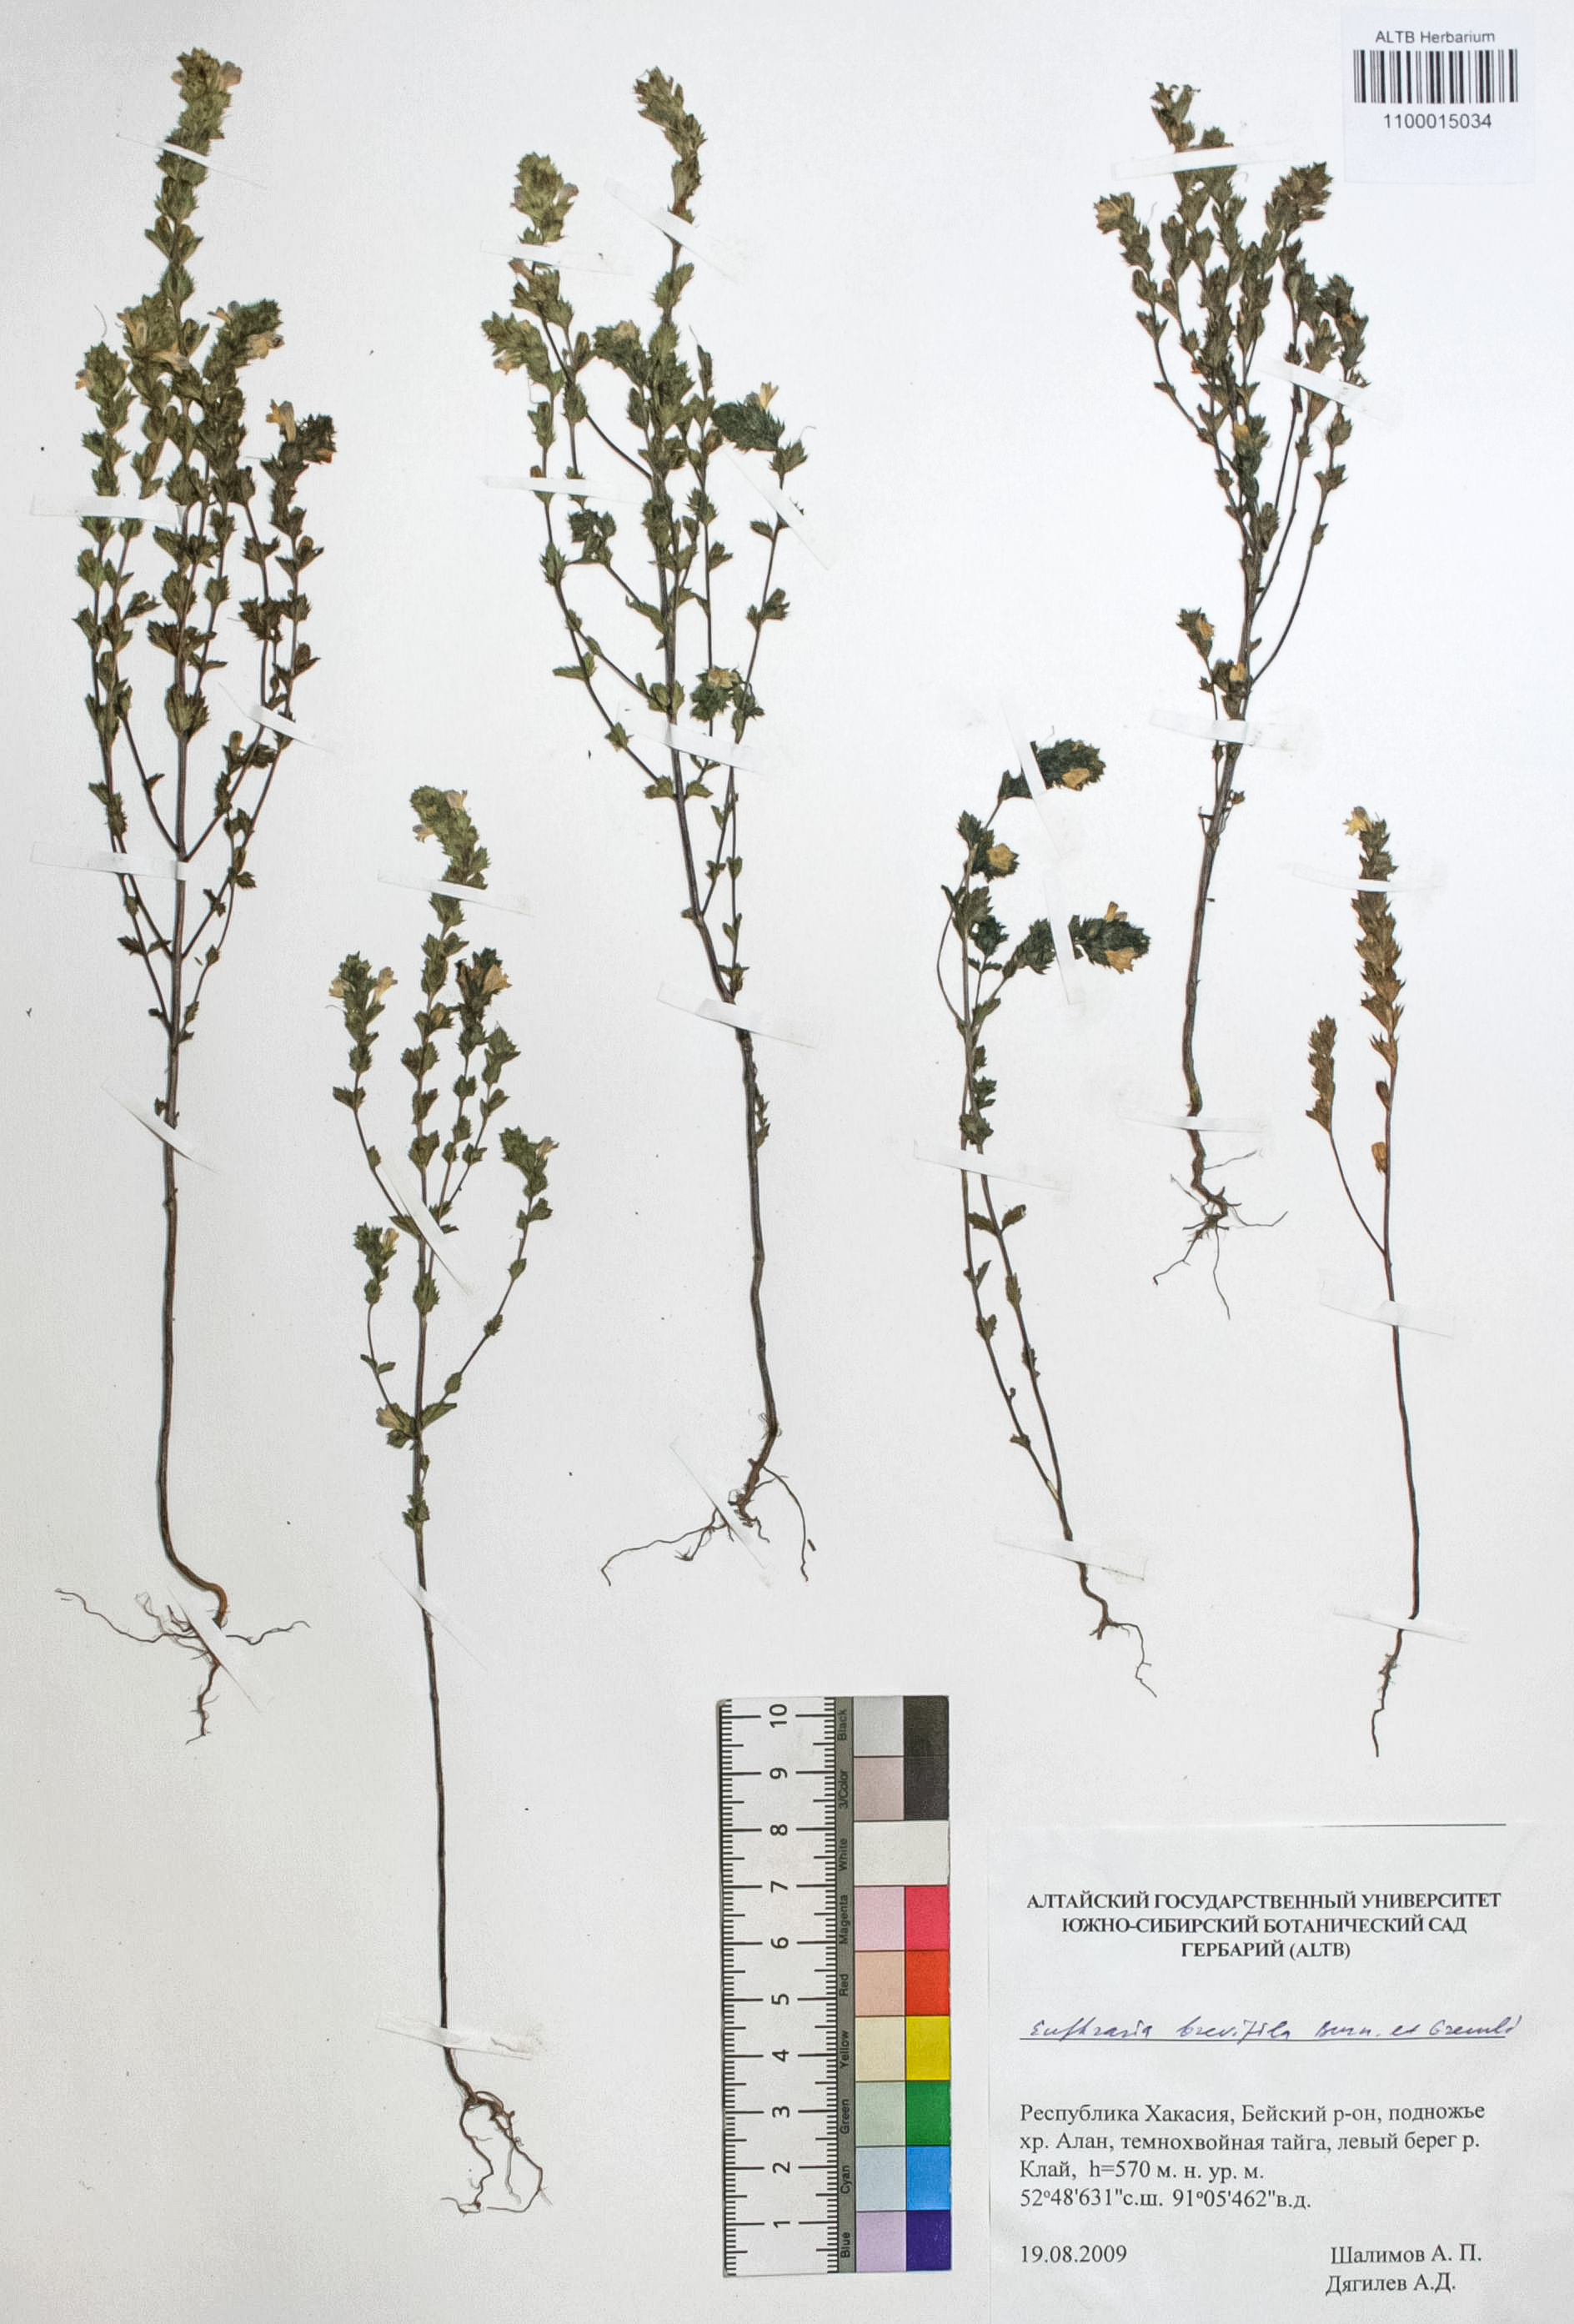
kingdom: Plantae
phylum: Tracheophyta
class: Magnoliopsida
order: Lamiales
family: Orobanchaceae
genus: Euphrasia
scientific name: Euphrasia vernalis
